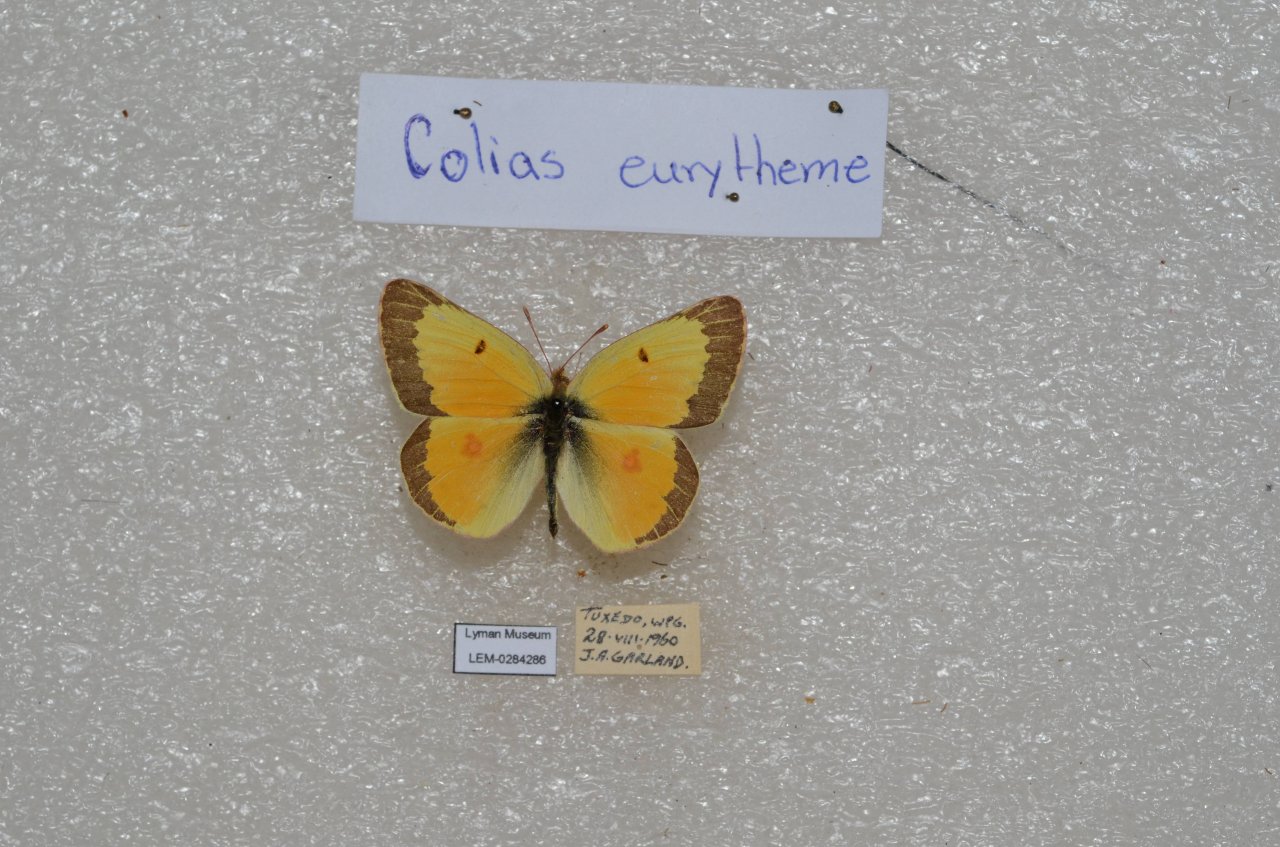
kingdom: Animalia
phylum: Arthropoda
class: Insecta
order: Lepidoptera
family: Pieridae
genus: Colias
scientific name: Colias eurytheme
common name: Orange Sulphur
